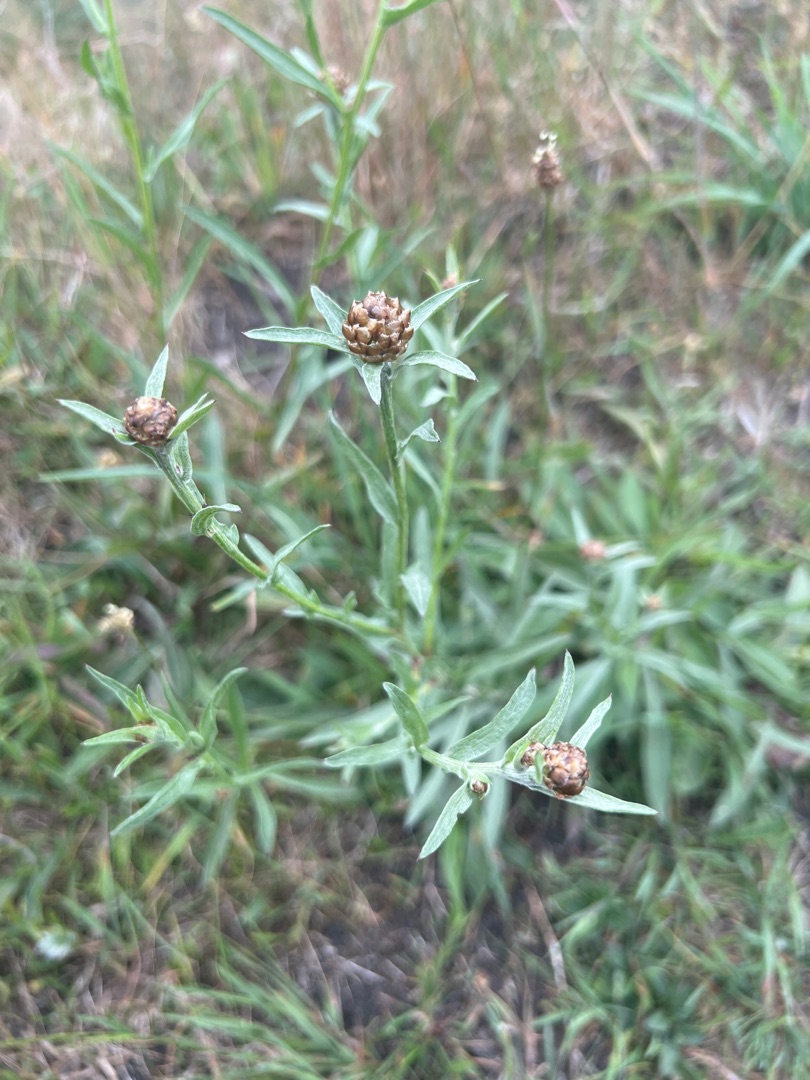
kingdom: Plantae
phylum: Tracheophyta
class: Magnoliopsida
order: Asterales
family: Asteraceae
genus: Centaurea
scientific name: Centaurea jacea
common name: Almindelig knopurt
